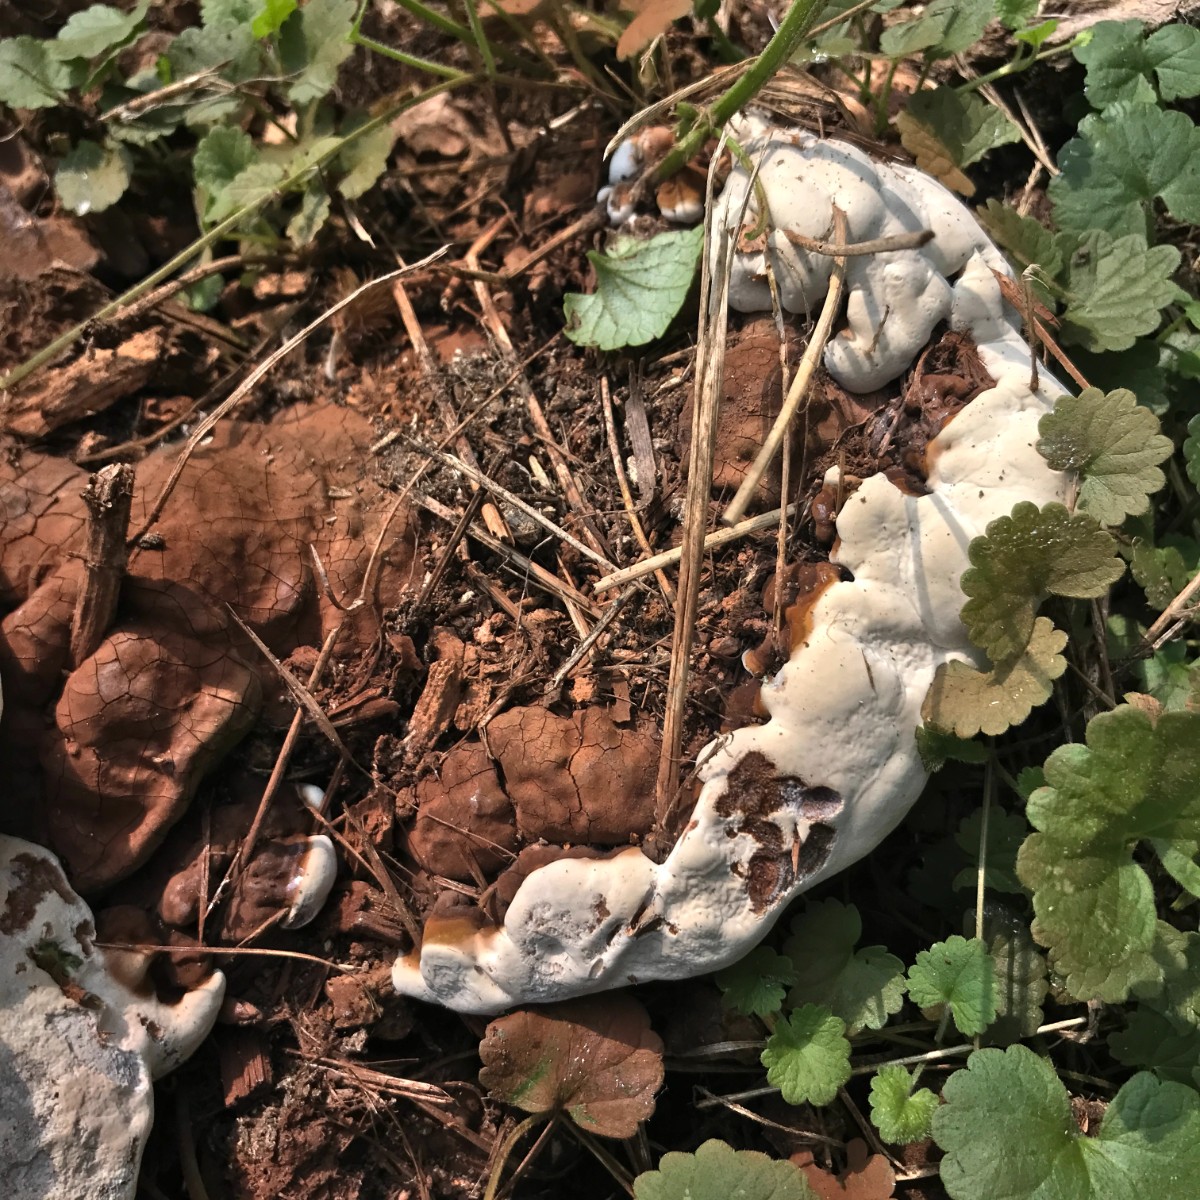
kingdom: Fungi
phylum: Basidiomycota
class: Agaricomycetes
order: Polyporales
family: Polyporaceae
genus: Ganoderma
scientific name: Ganoderma pfeifferi
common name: kobberrød lakporesvamp
